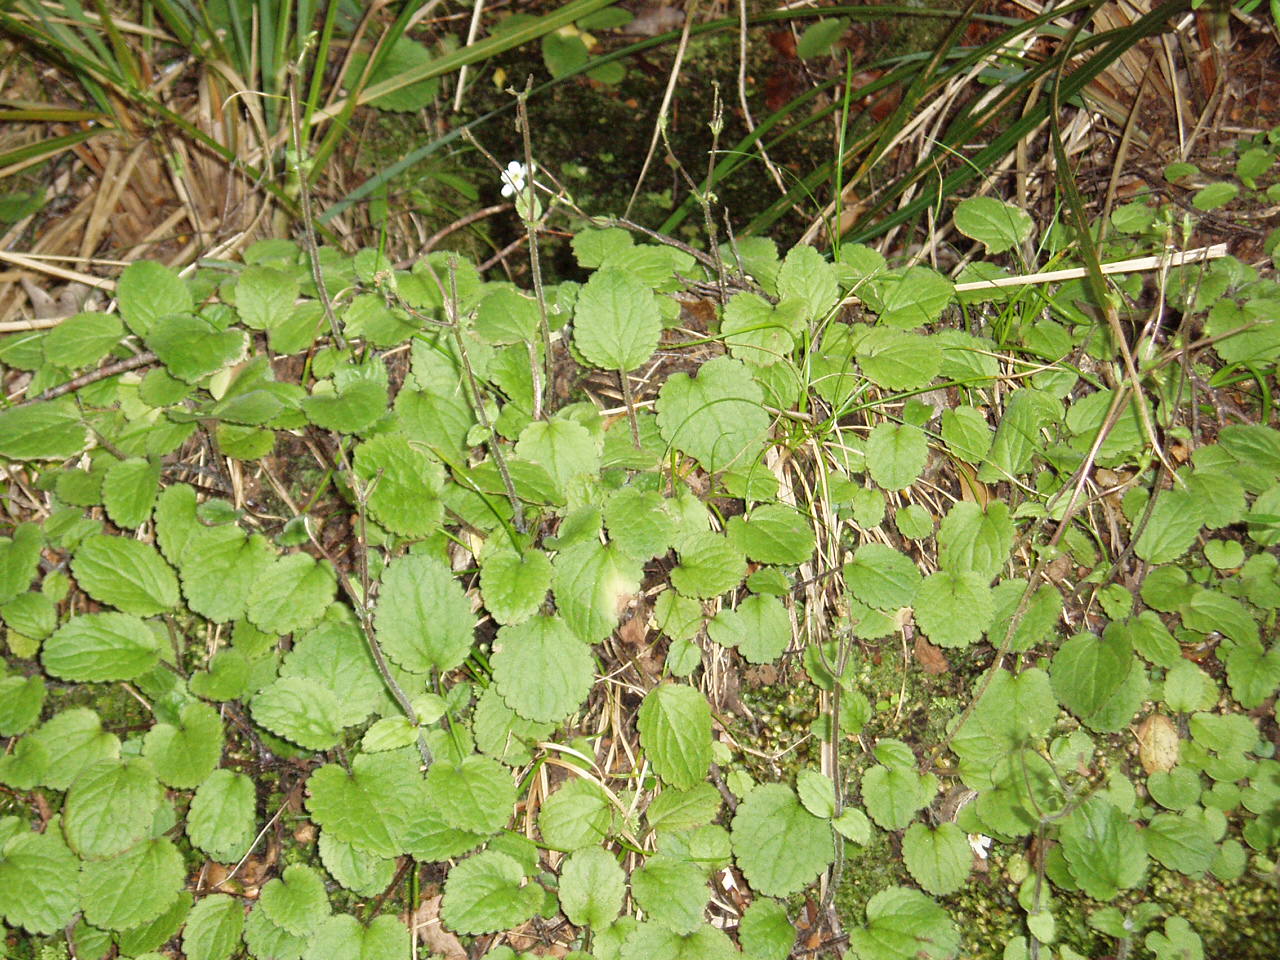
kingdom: Plantae
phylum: Tracheophyta
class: Magnoliopsida
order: Lamiales
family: Plantaginaceae
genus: Ourisia
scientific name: Ourisia macrophylla
